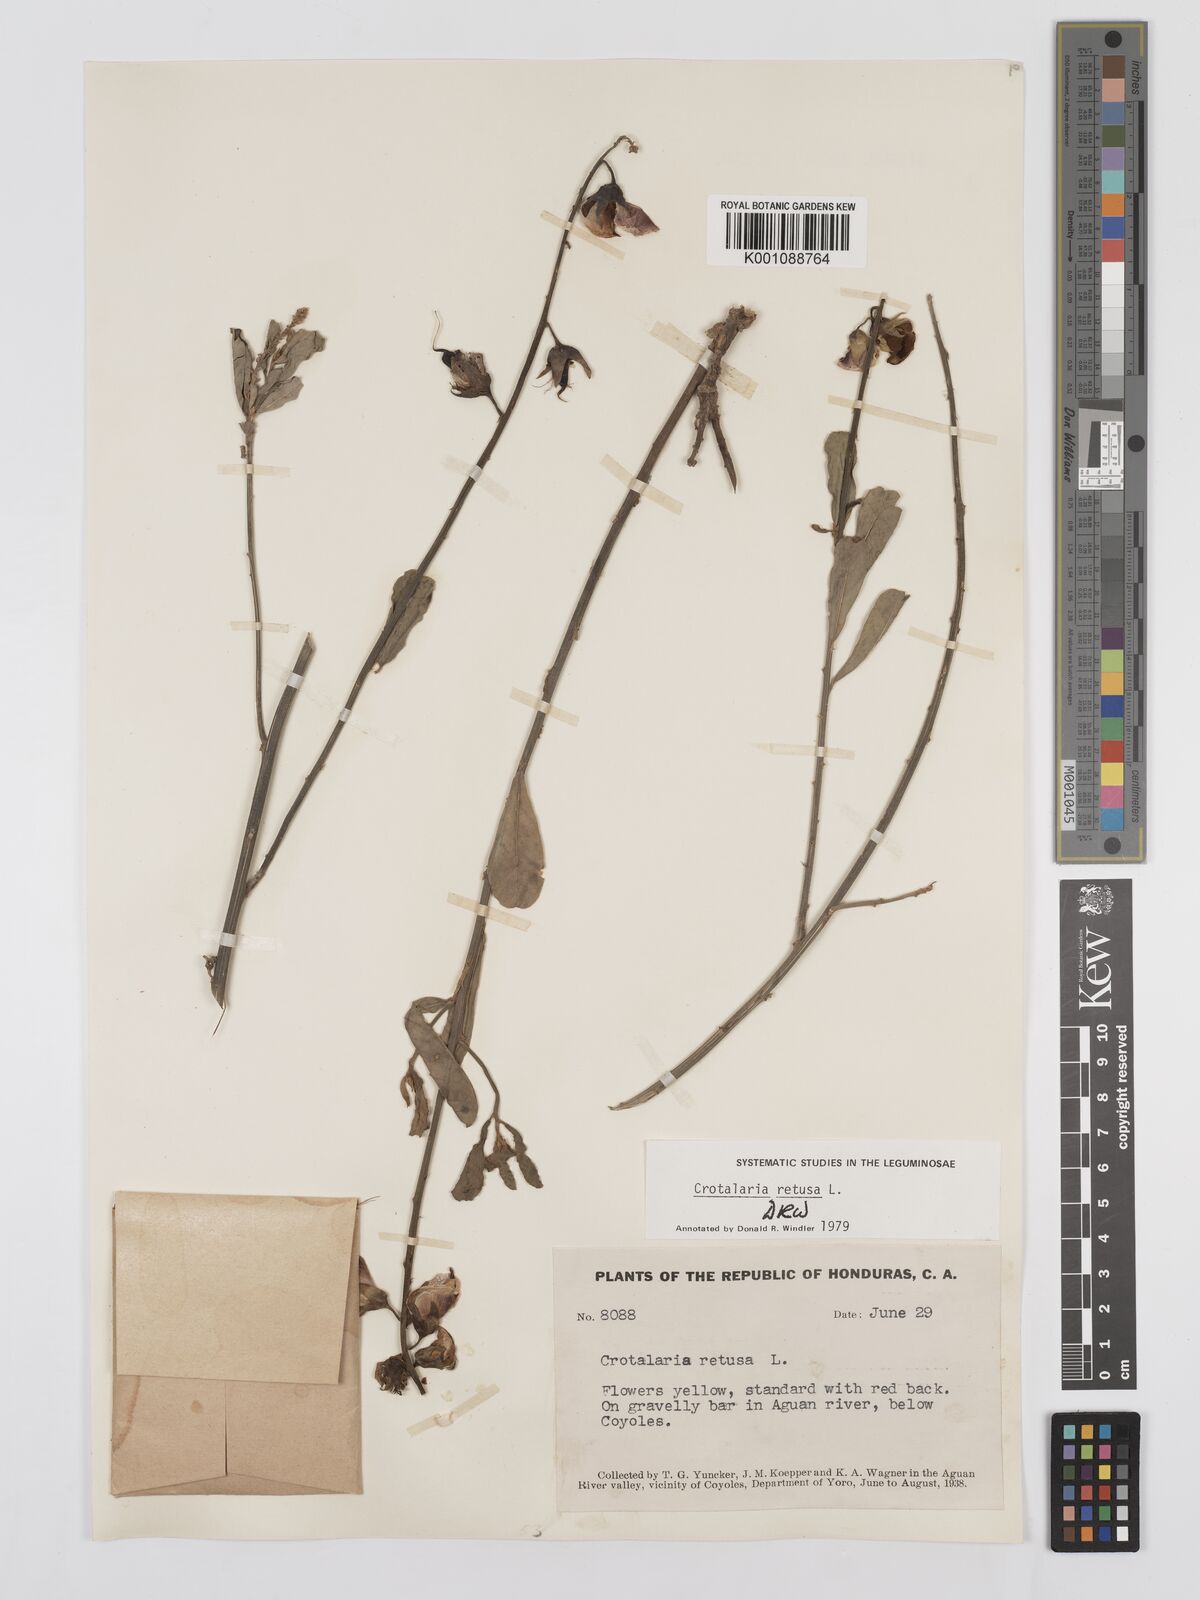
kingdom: Plantae
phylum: Tracheophyta
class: Magnoliopsida
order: Fabales
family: Fabaceae
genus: Crotalaria
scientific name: Crotalaria retusa
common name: Rattleweed
